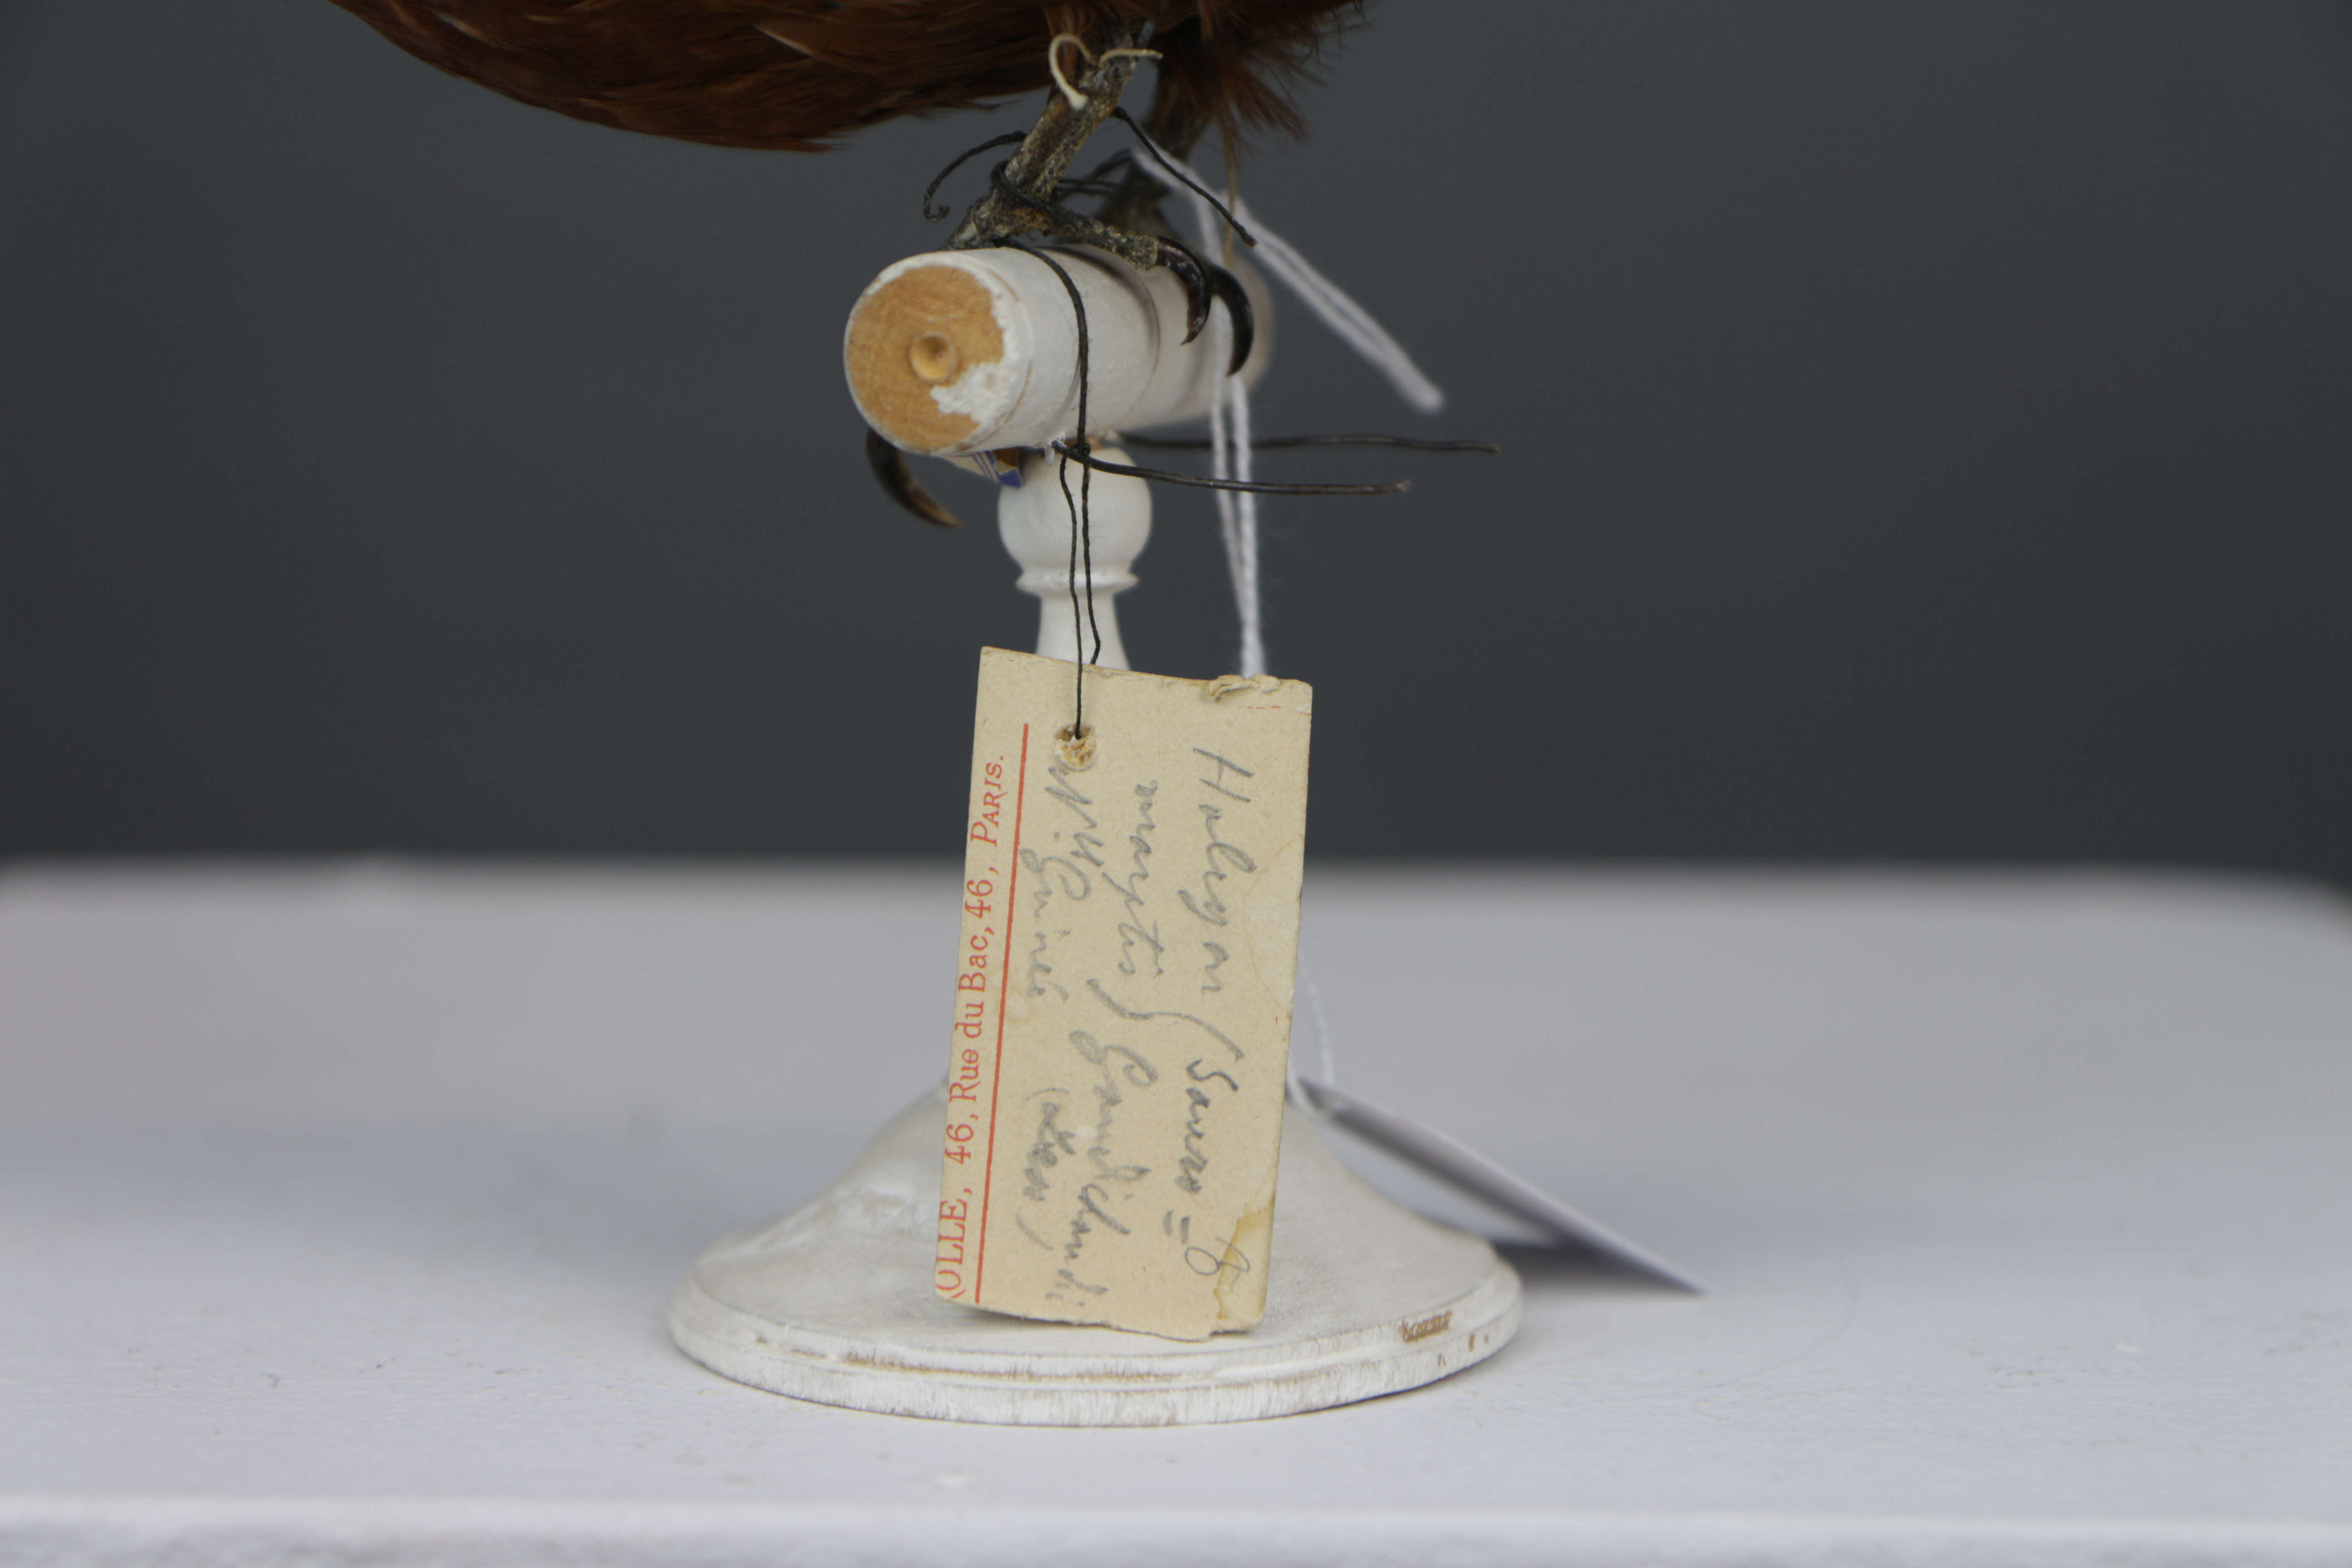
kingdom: Animalia
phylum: Chordata
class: Aves
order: Coraciiformes
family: Alcedinidae
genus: Dacelo
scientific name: Dacelo gaudichaud
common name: Rufous-bellied kookaburra
